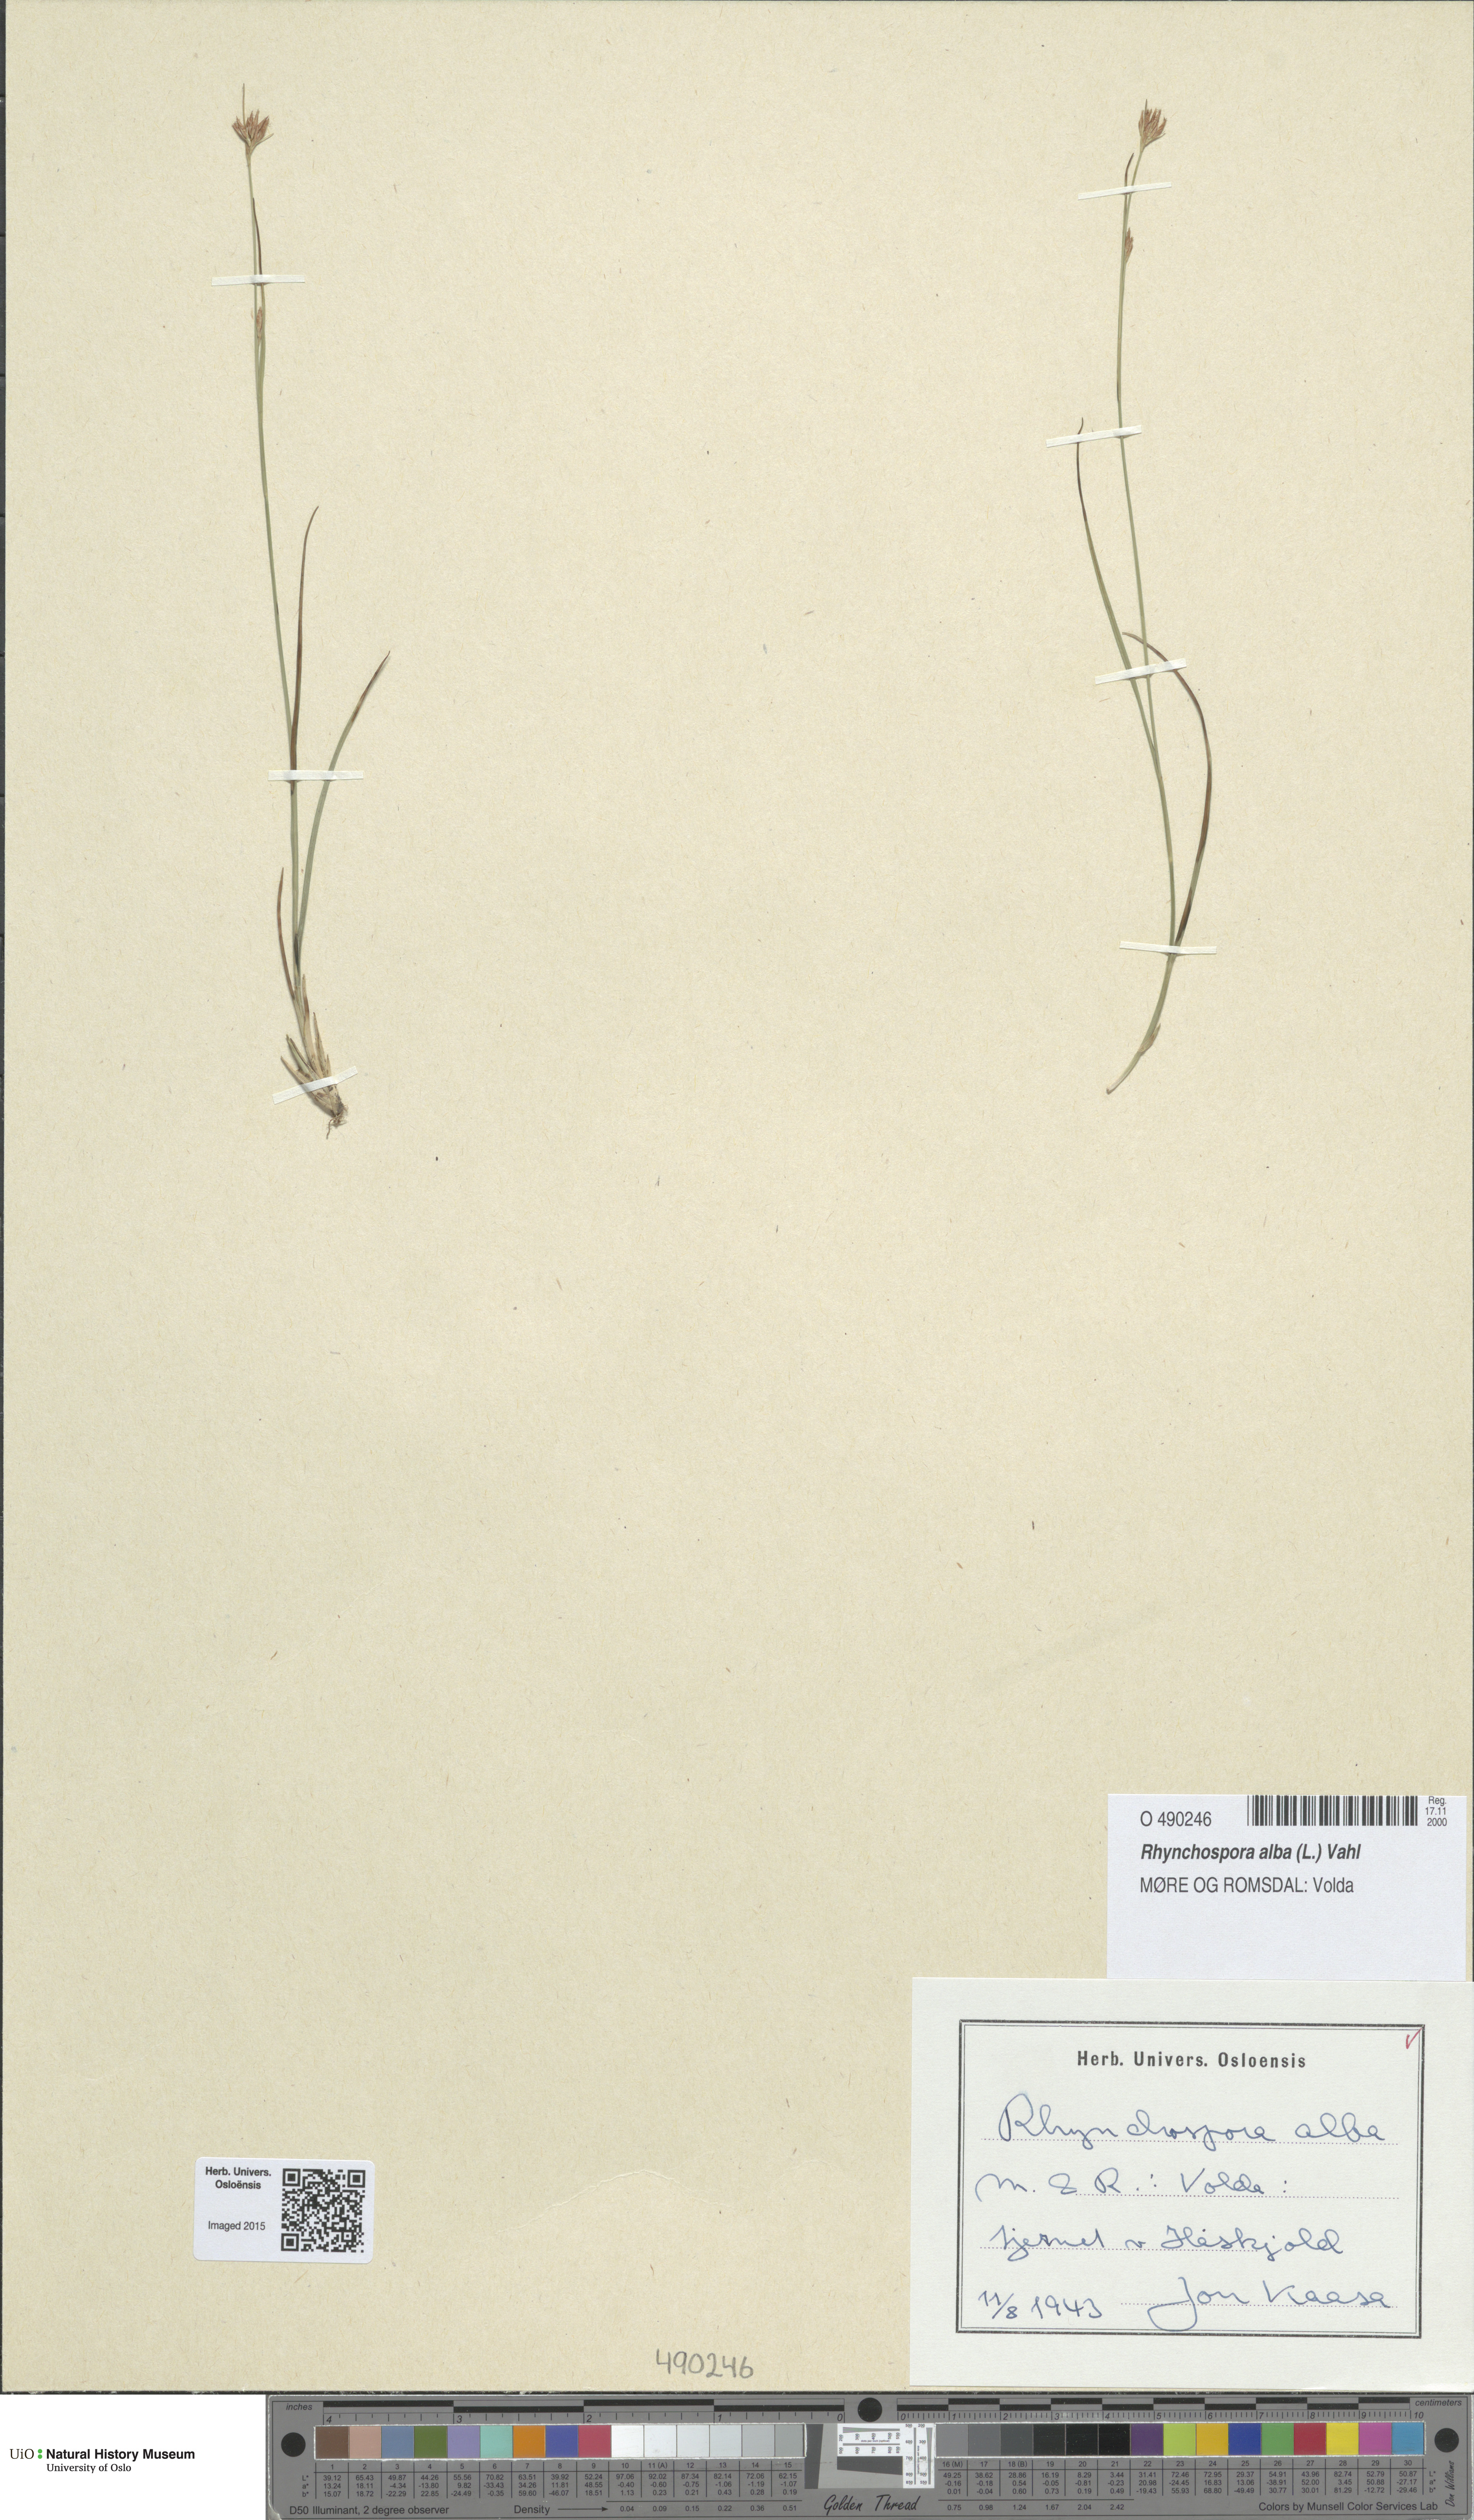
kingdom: Plantae
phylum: Tracheophyta
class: Liliopsida
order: Poales
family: Cyperaceae
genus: Rhynchospora
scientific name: Rhynchospora alba
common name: White beak-sedge
